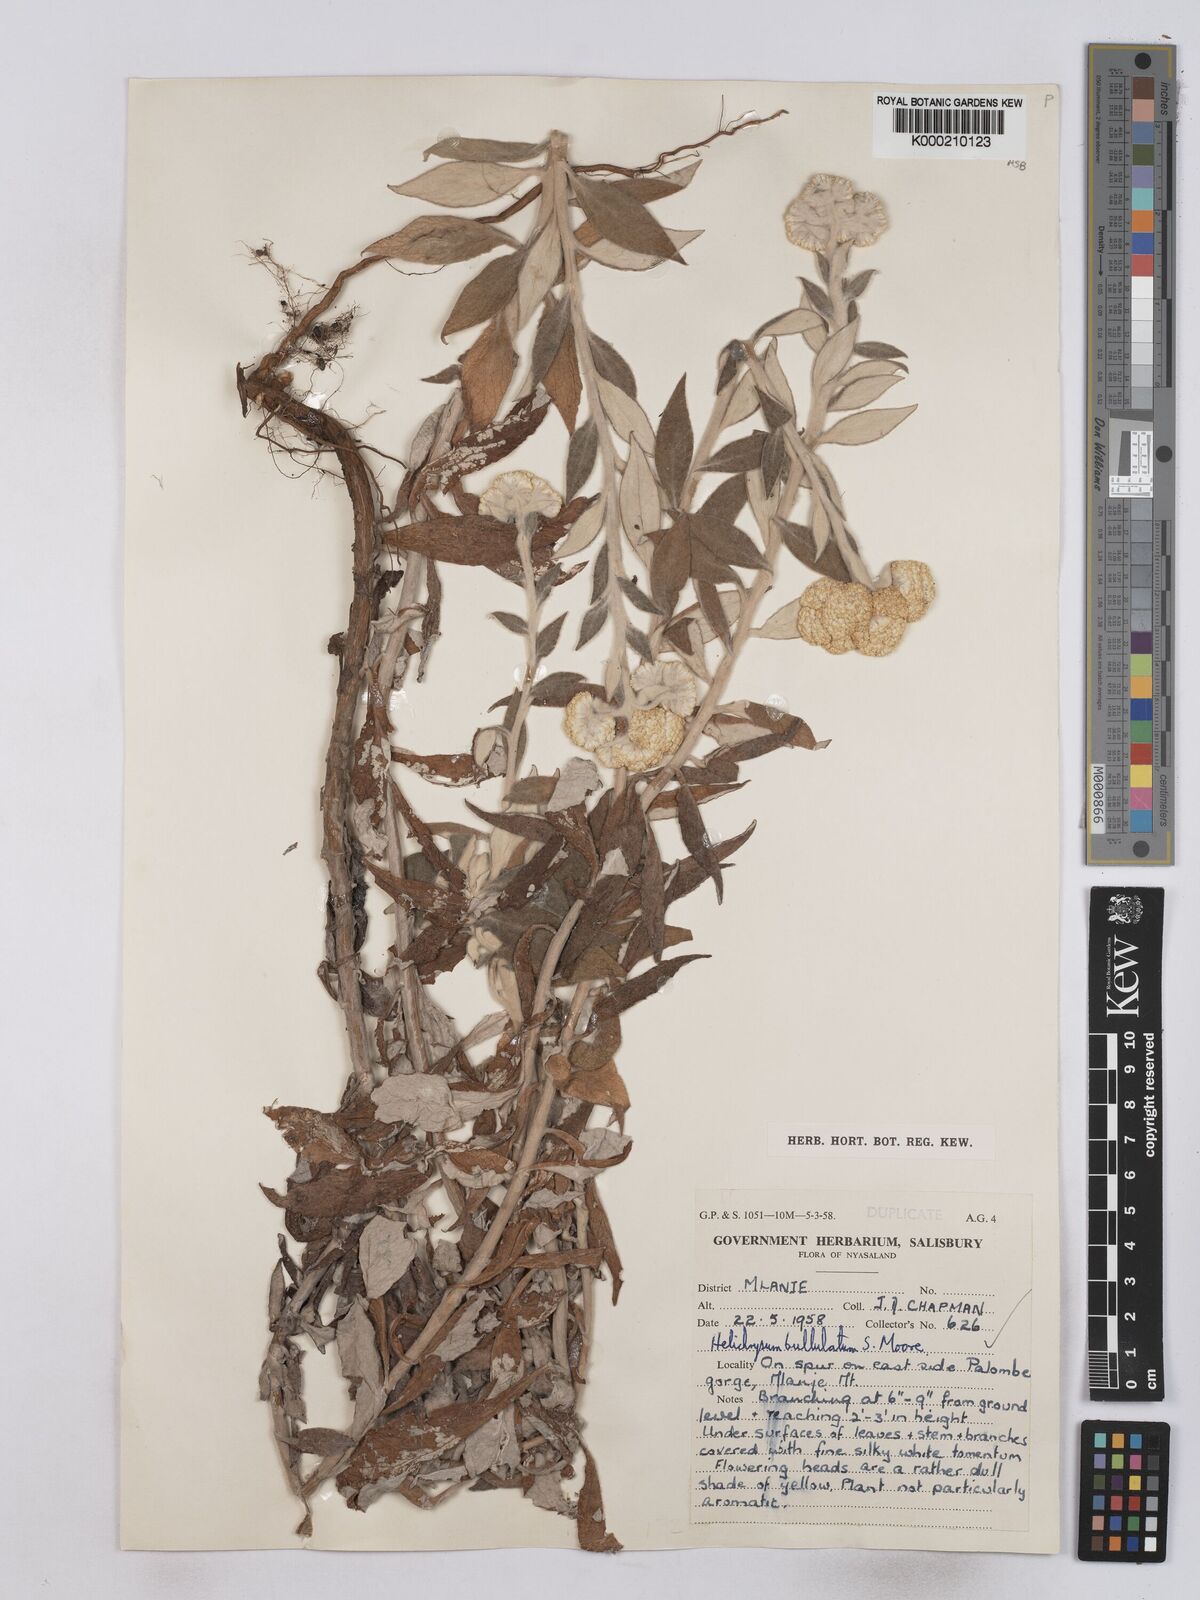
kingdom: Plantae
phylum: Tracheophyta
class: Magnoliopsida
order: Asterales
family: Asteraceae
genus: Helichrysum
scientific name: Helichrysum bullulatum
